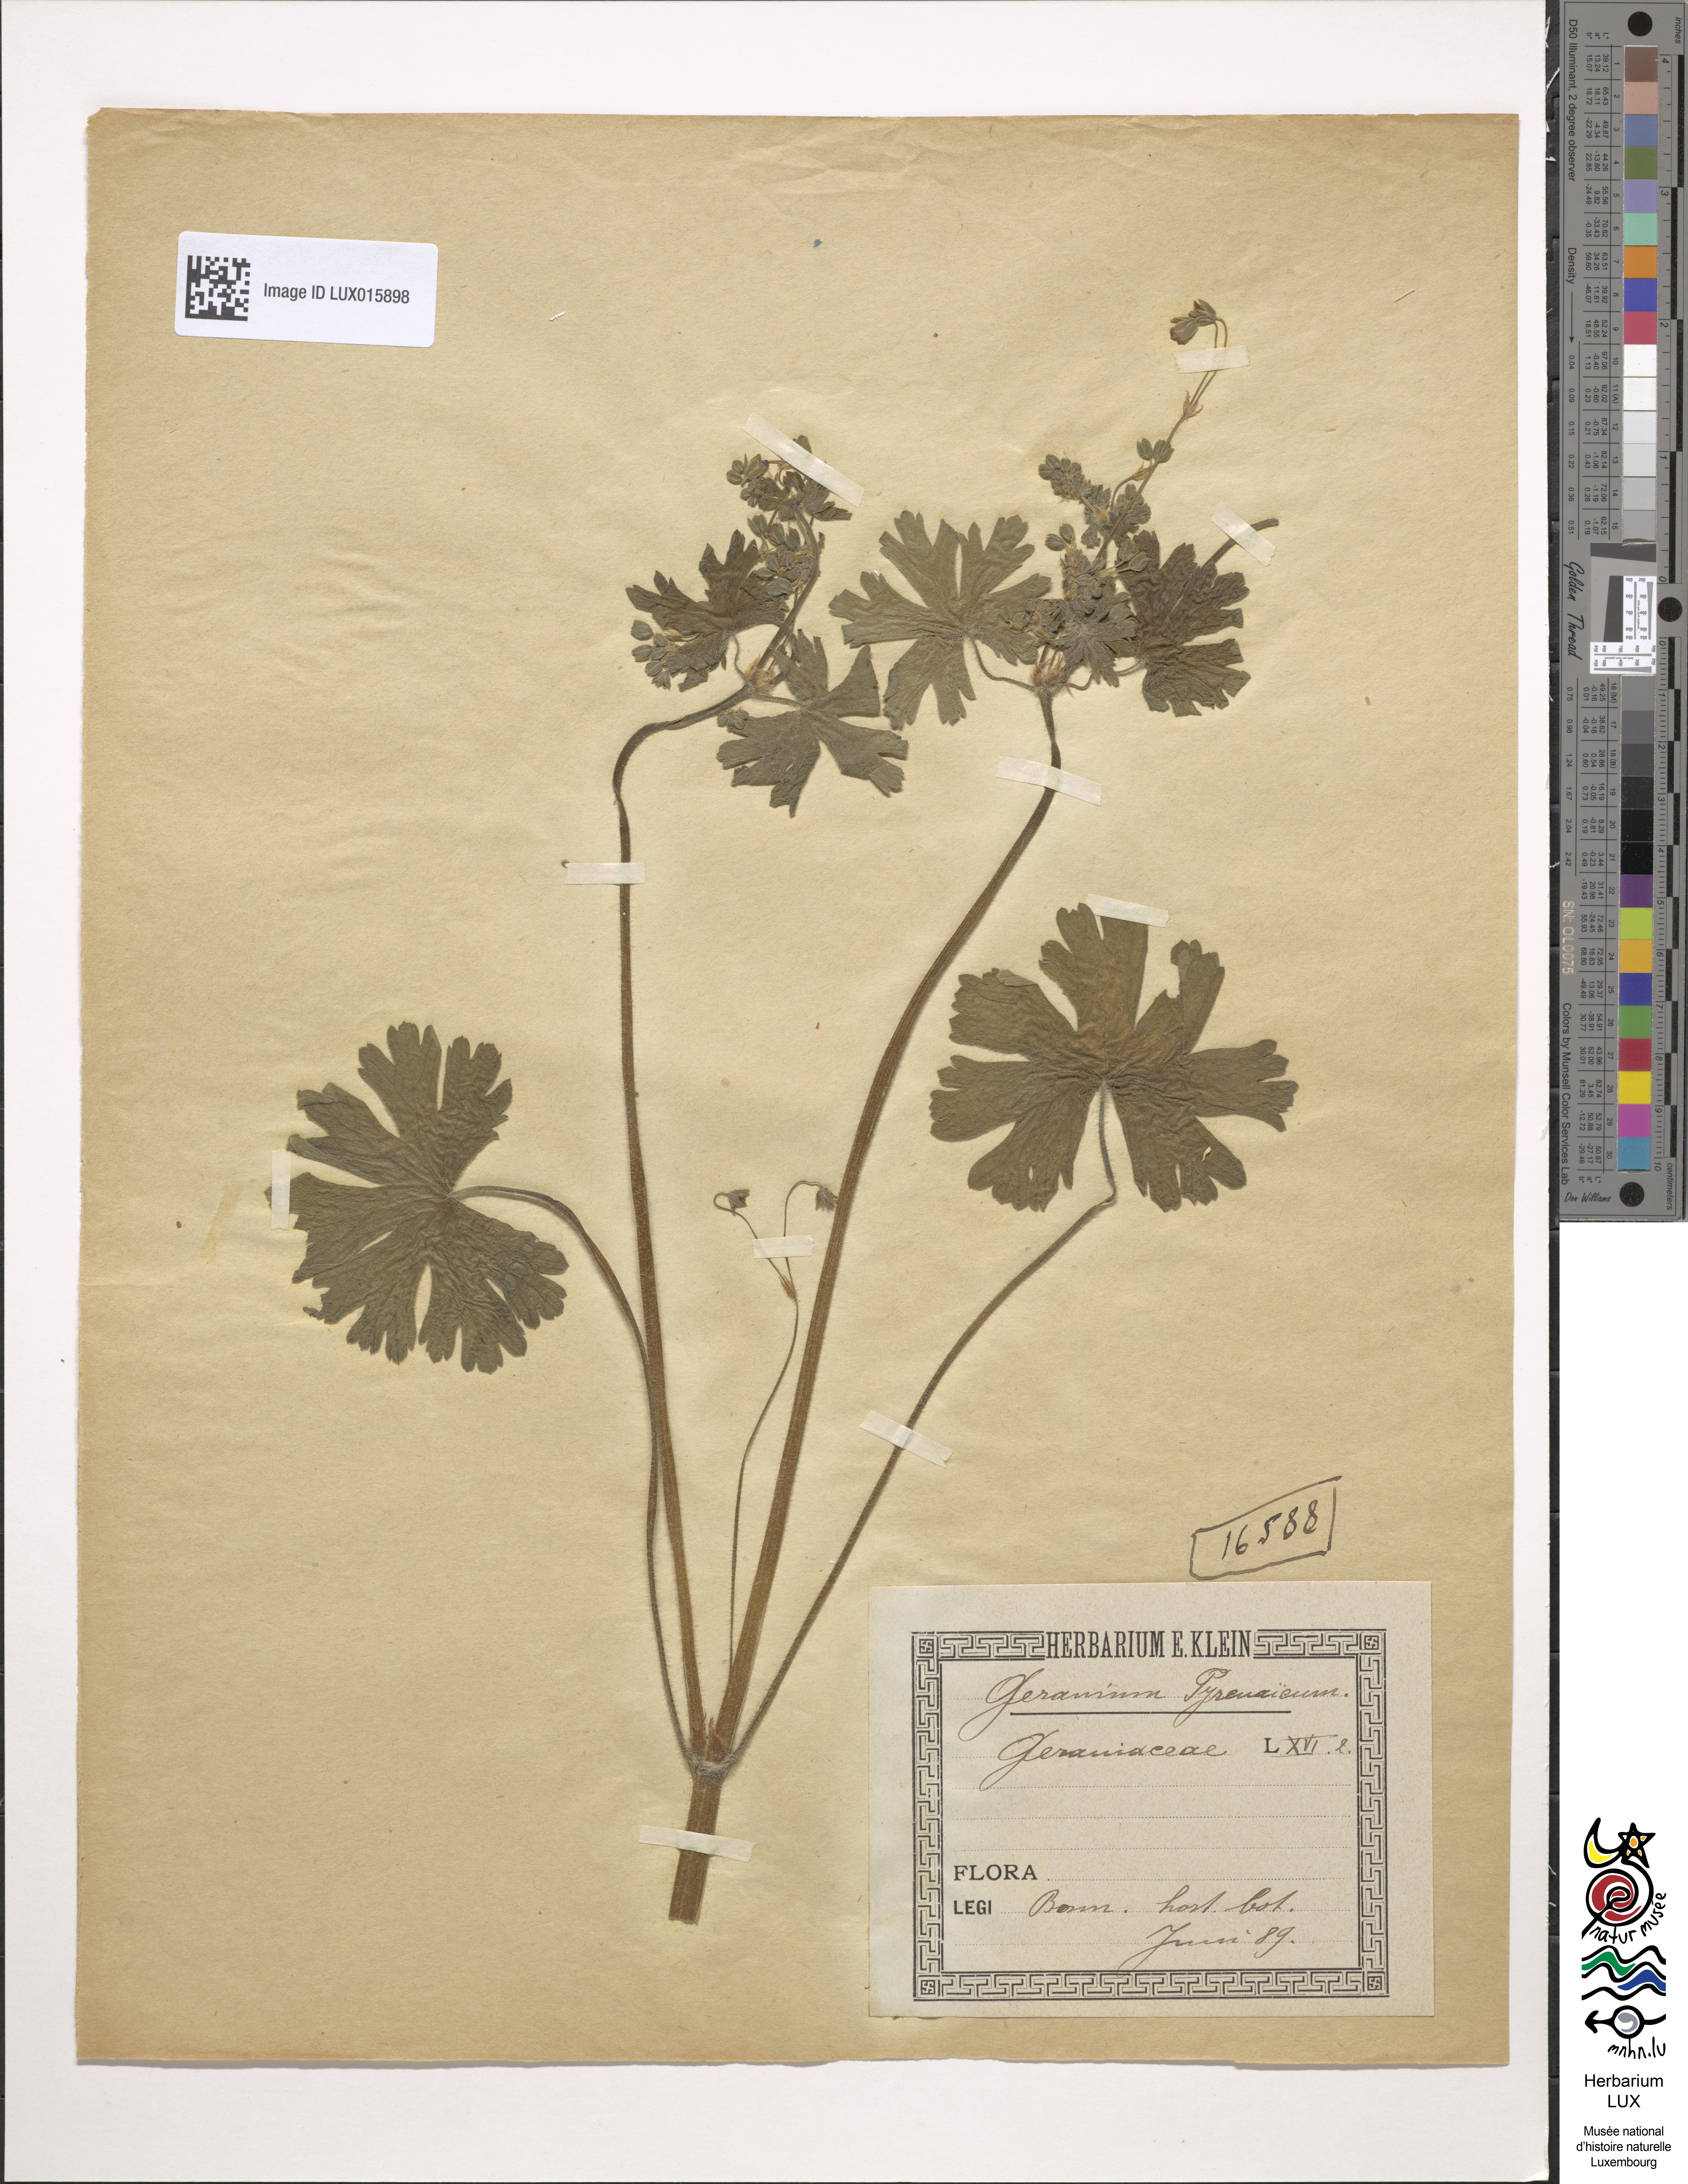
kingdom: Plantae
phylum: Tracheophyta
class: Magnoliopsida
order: Geraniales
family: Geraniaceae
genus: Geranium
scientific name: Geranium pyrenaicum
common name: Hedgerow crane's-bill
